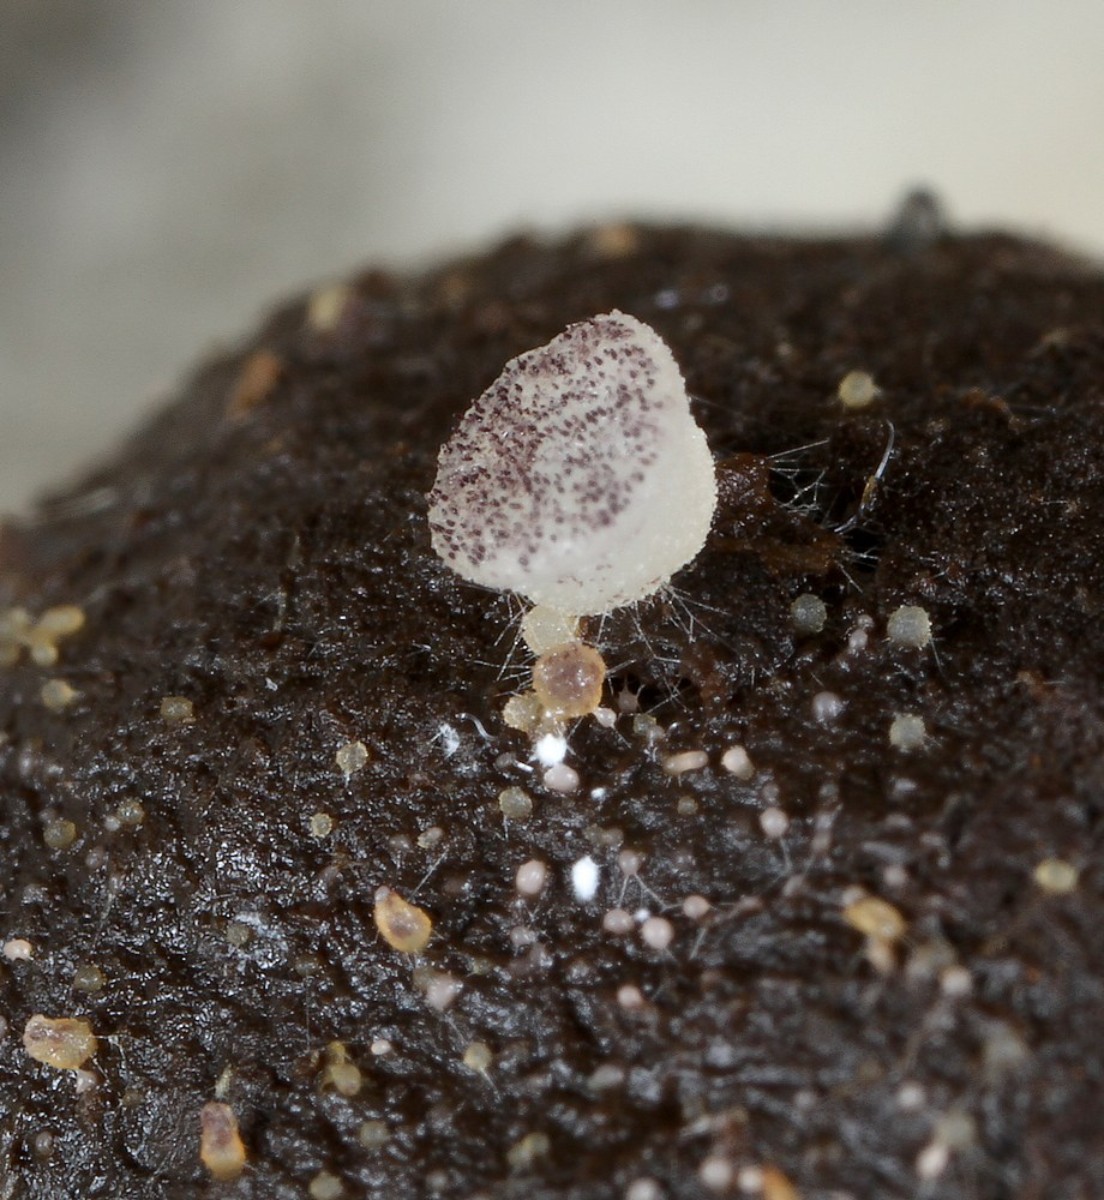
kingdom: Fungi
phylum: Ascomycota
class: Pezizomycetes
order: Pezizales
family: Ascobolaceae
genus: Ascobolus
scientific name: Ascobolus
